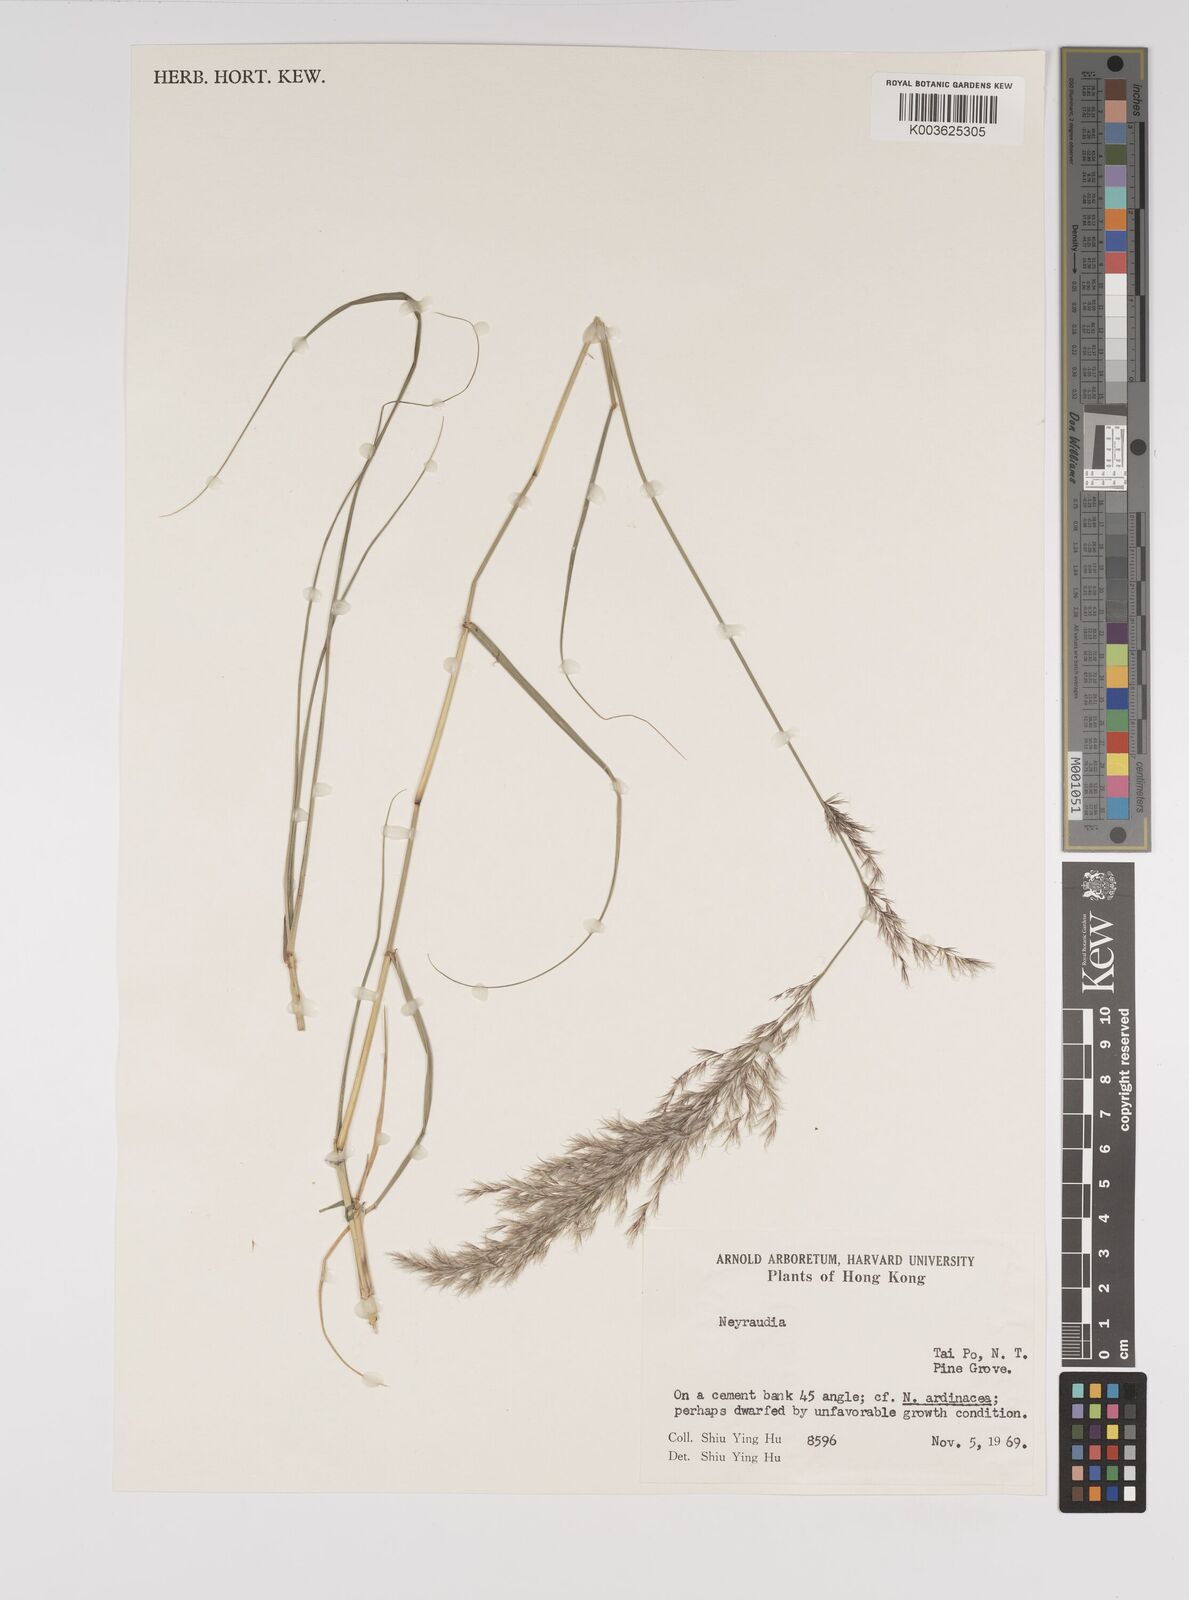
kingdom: Plantae
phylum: Tracheophyta
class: Liliopsida
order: Poales
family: Poaceae
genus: Neyraudia
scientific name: Neyraudia reynaudiana
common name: Silkreed
